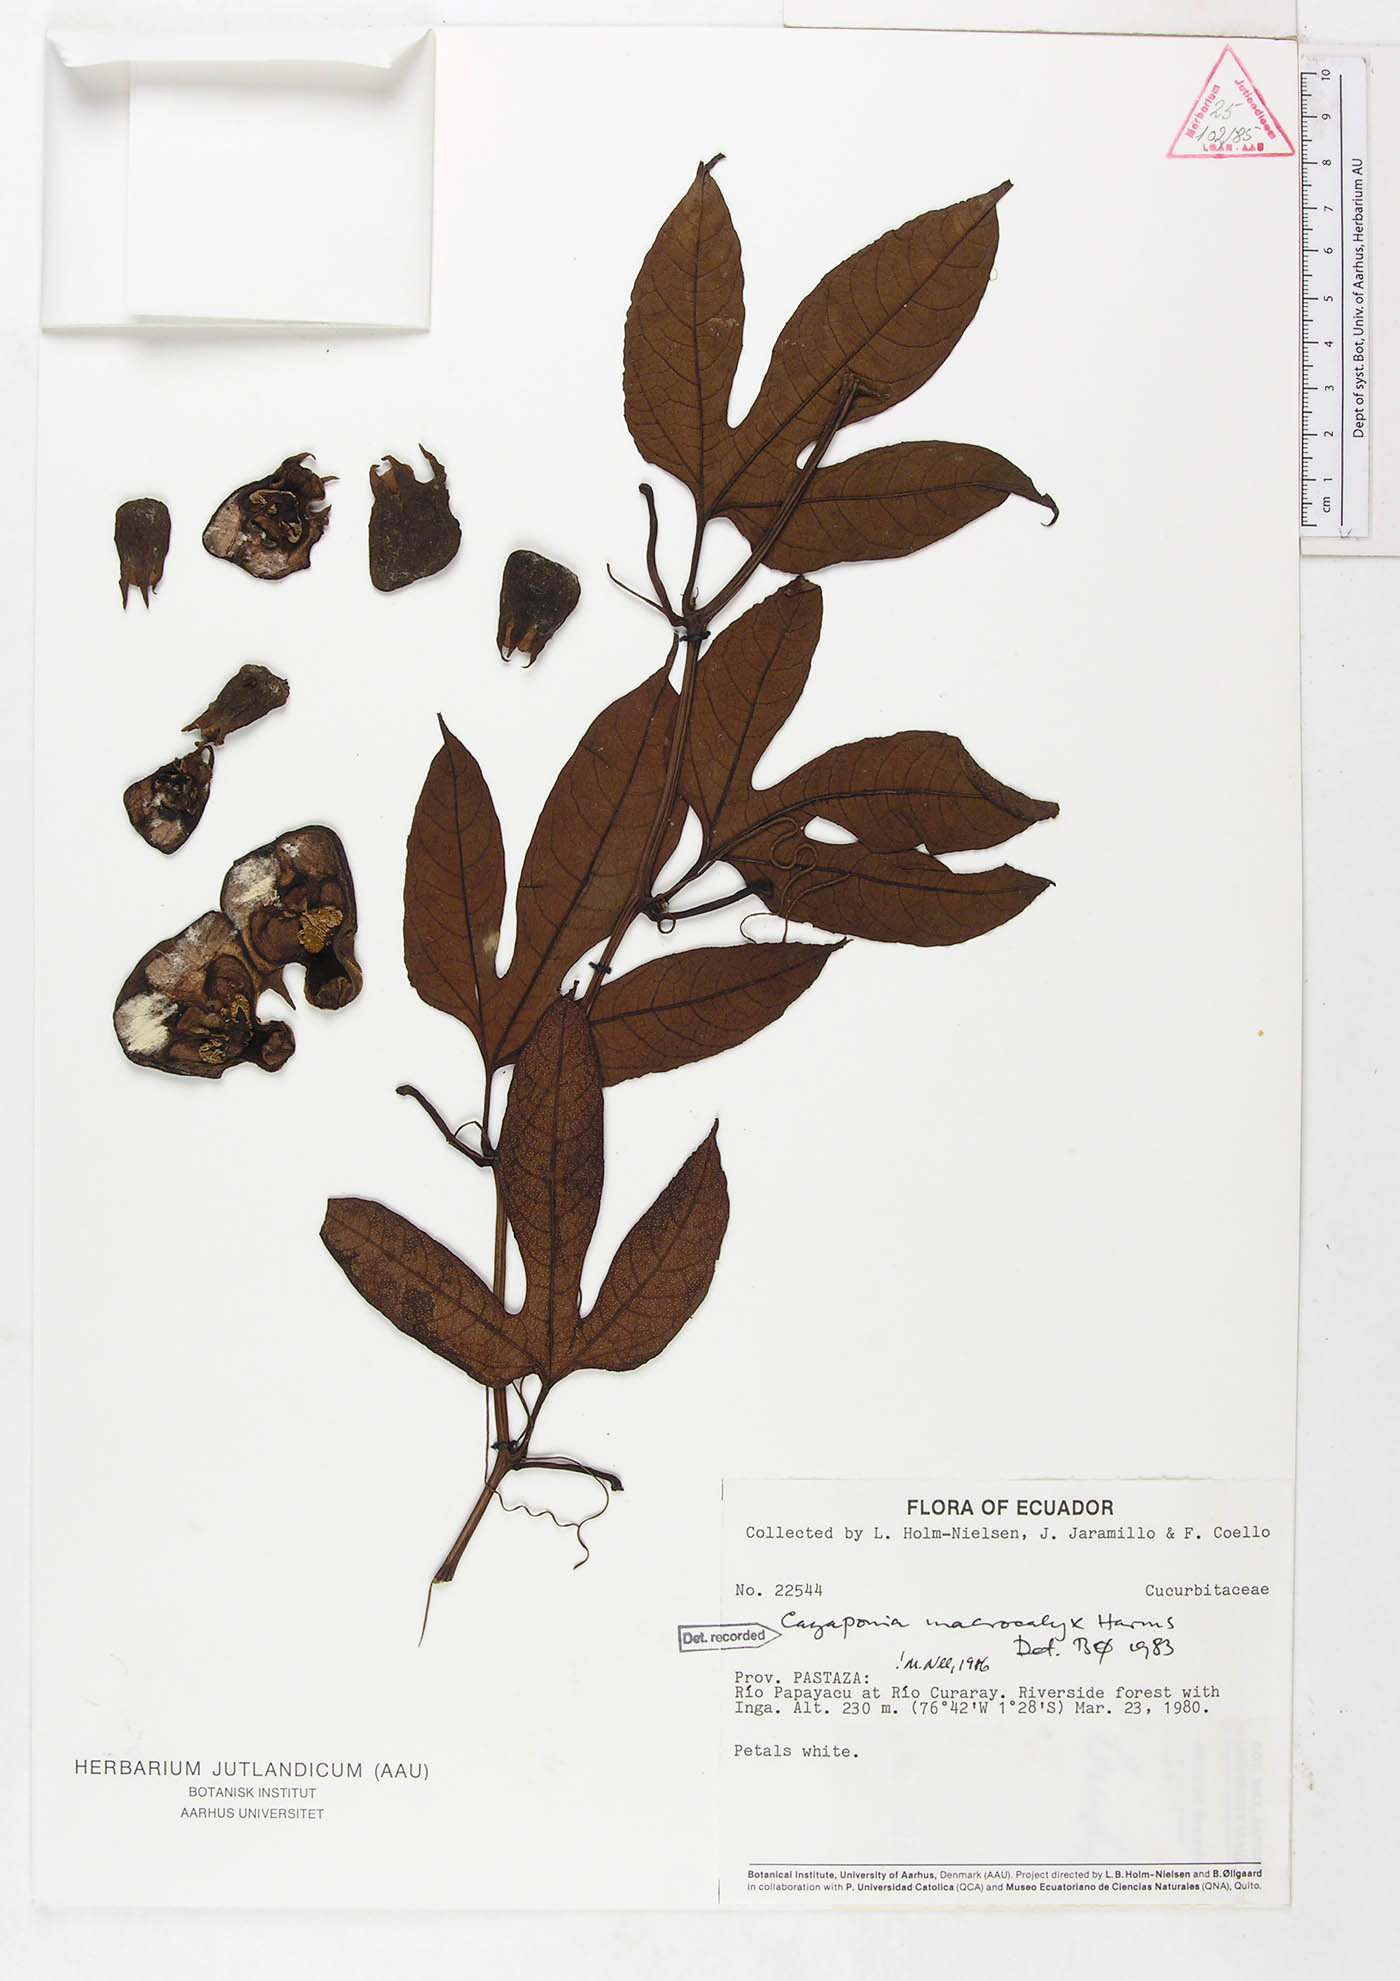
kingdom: Plantae
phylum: Tracheophyta
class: Magnoliopsida
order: Cucurbitales
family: Cucurbitaceae
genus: Cayaponia
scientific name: Cayaponia macrocalyx
